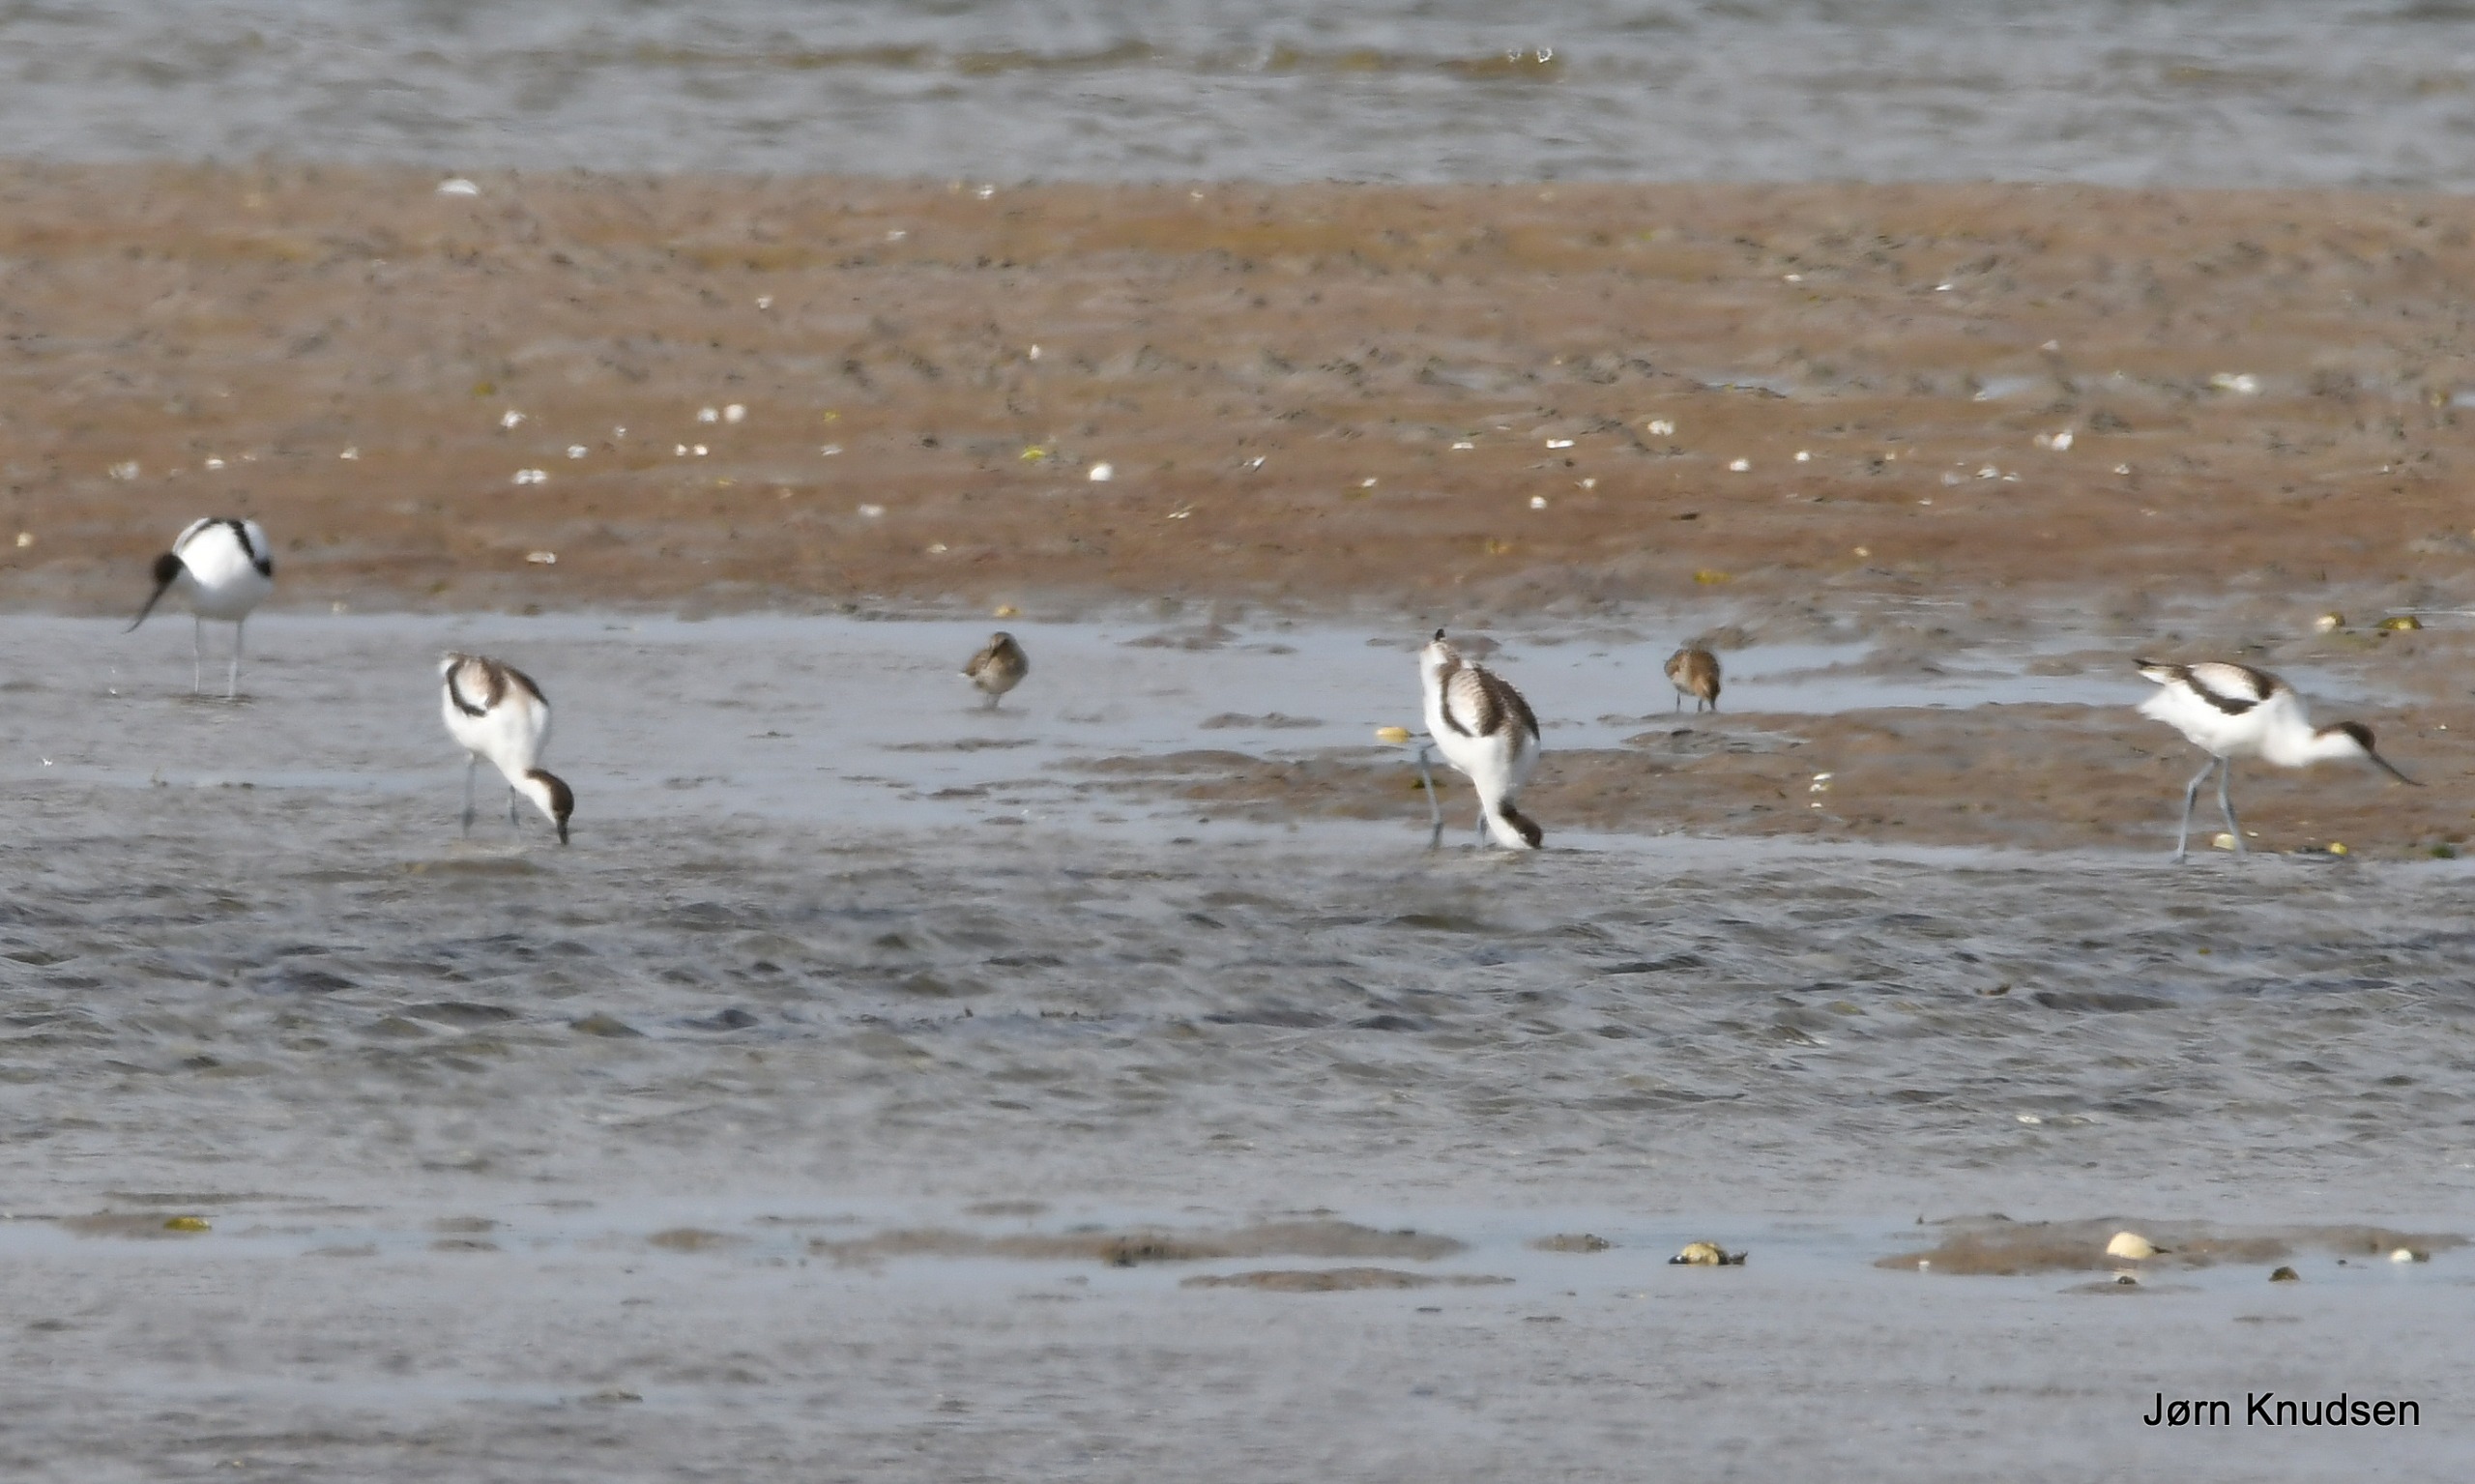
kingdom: Animalia
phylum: Chordata
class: Aves
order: Charadriiformes
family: Recurvirostridae
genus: Recurvirostra
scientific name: Recurvirostra avosetta
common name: Klyde
